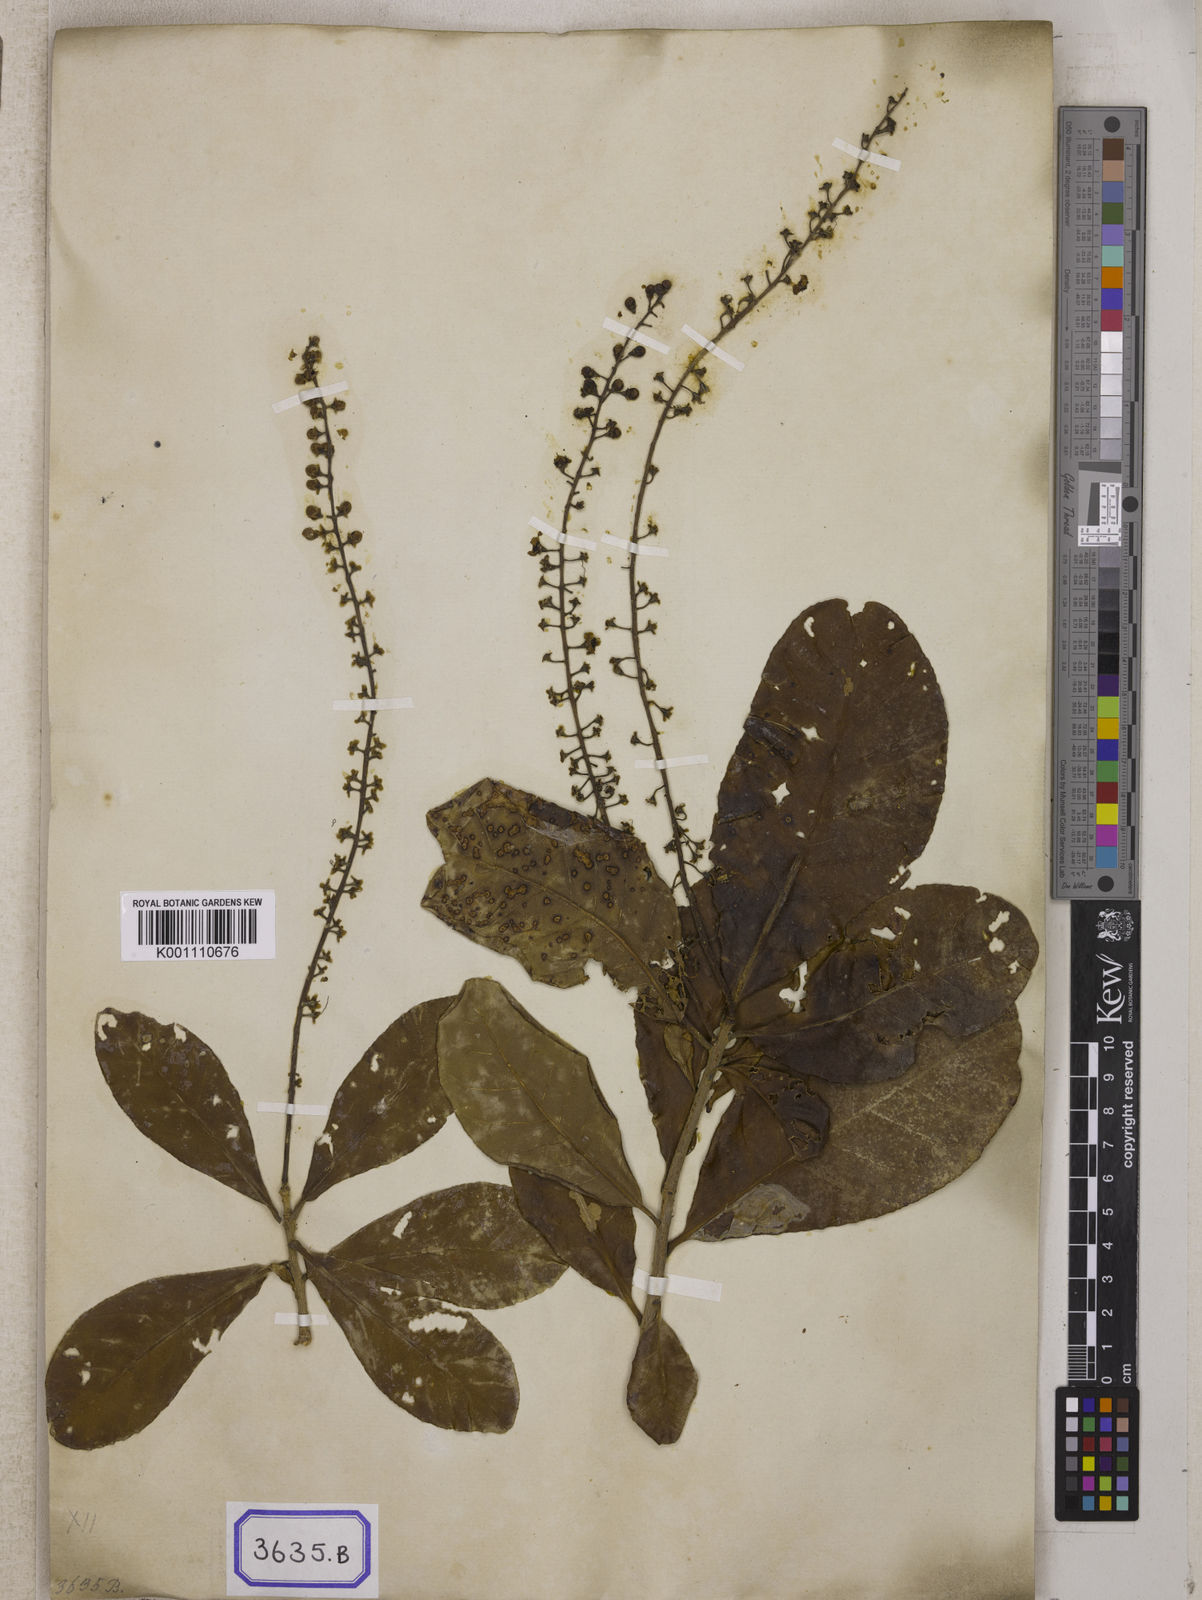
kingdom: Plantae
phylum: Tracheophyta
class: Magnoliopsida
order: Ericales
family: Lecythidaceae
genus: Barringtonia
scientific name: Barringtonia acutangula
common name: Freshwater mangrove
